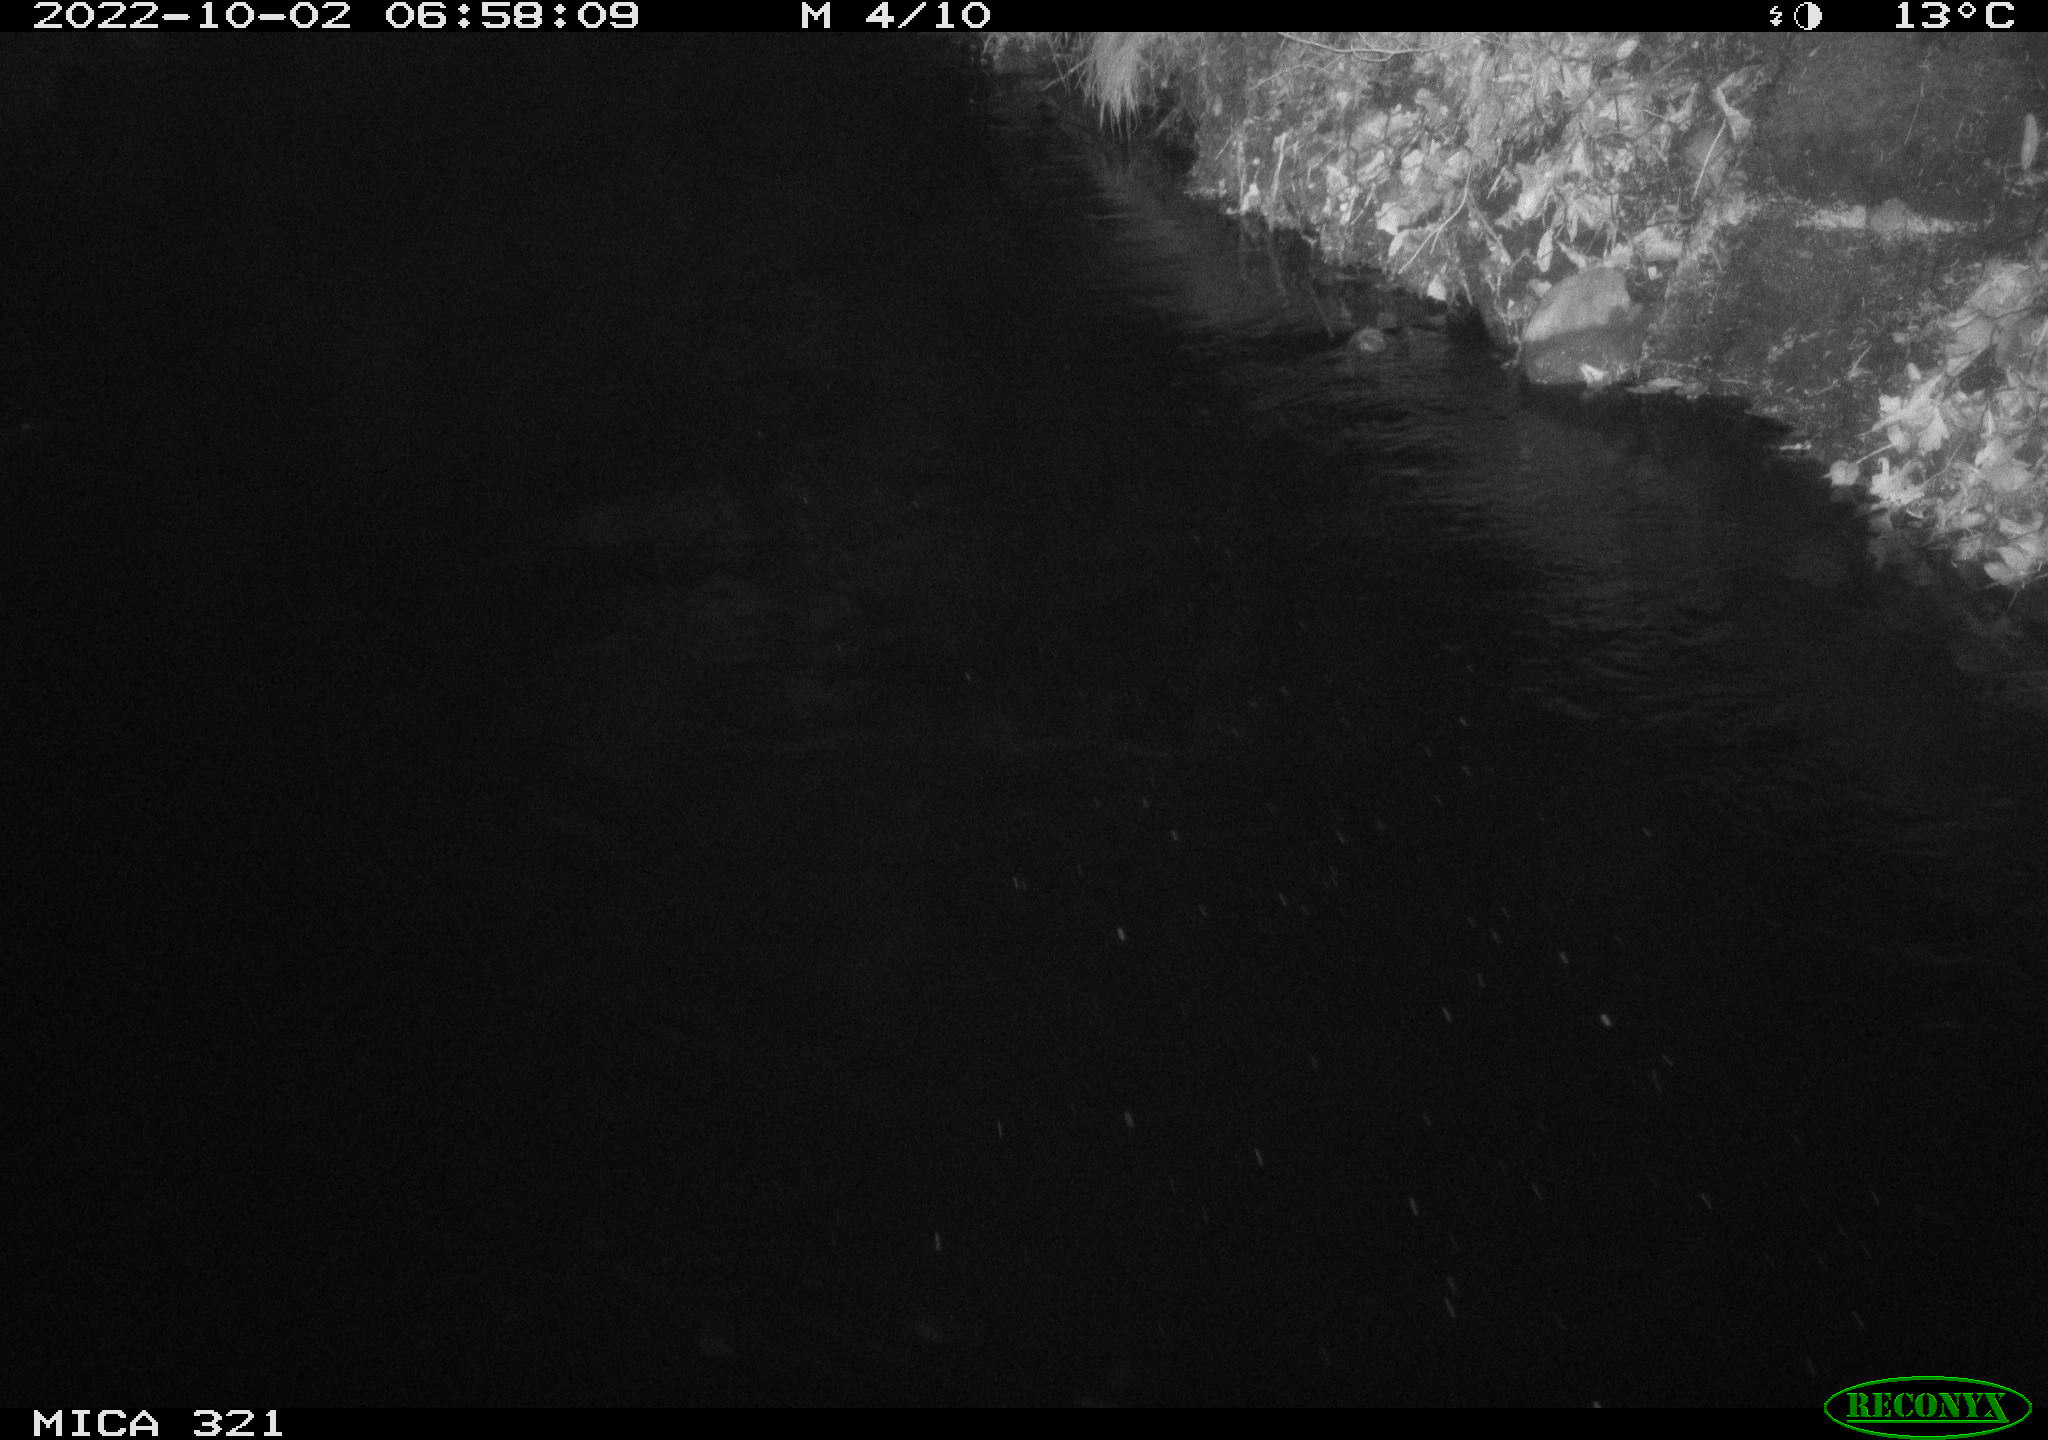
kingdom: Animalia
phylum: Chordata
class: Aves
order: Anseriformes
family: Anatidae
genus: Anas
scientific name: Anas
